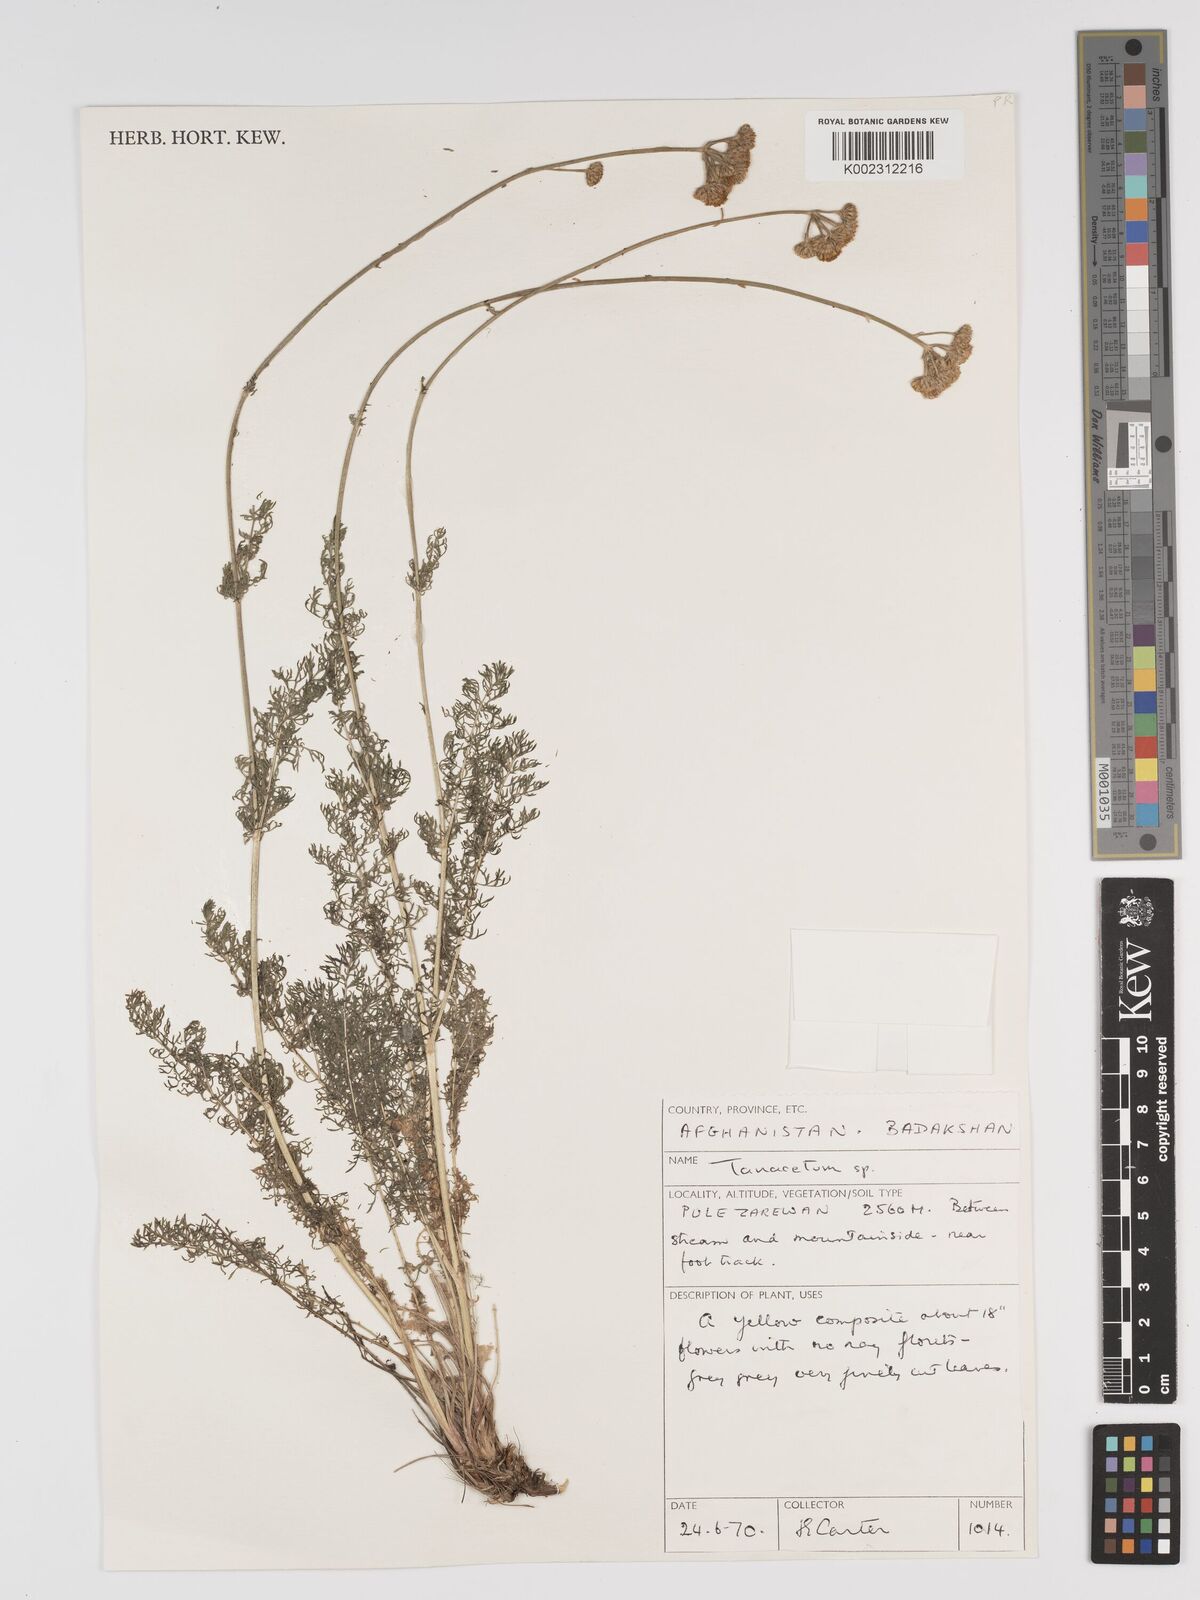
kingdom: Plantae
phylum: Tracheophyta
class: Magnoliopsida
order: Asterales
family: Asteraceae
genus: Tanacetum
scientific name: Tanacetum
